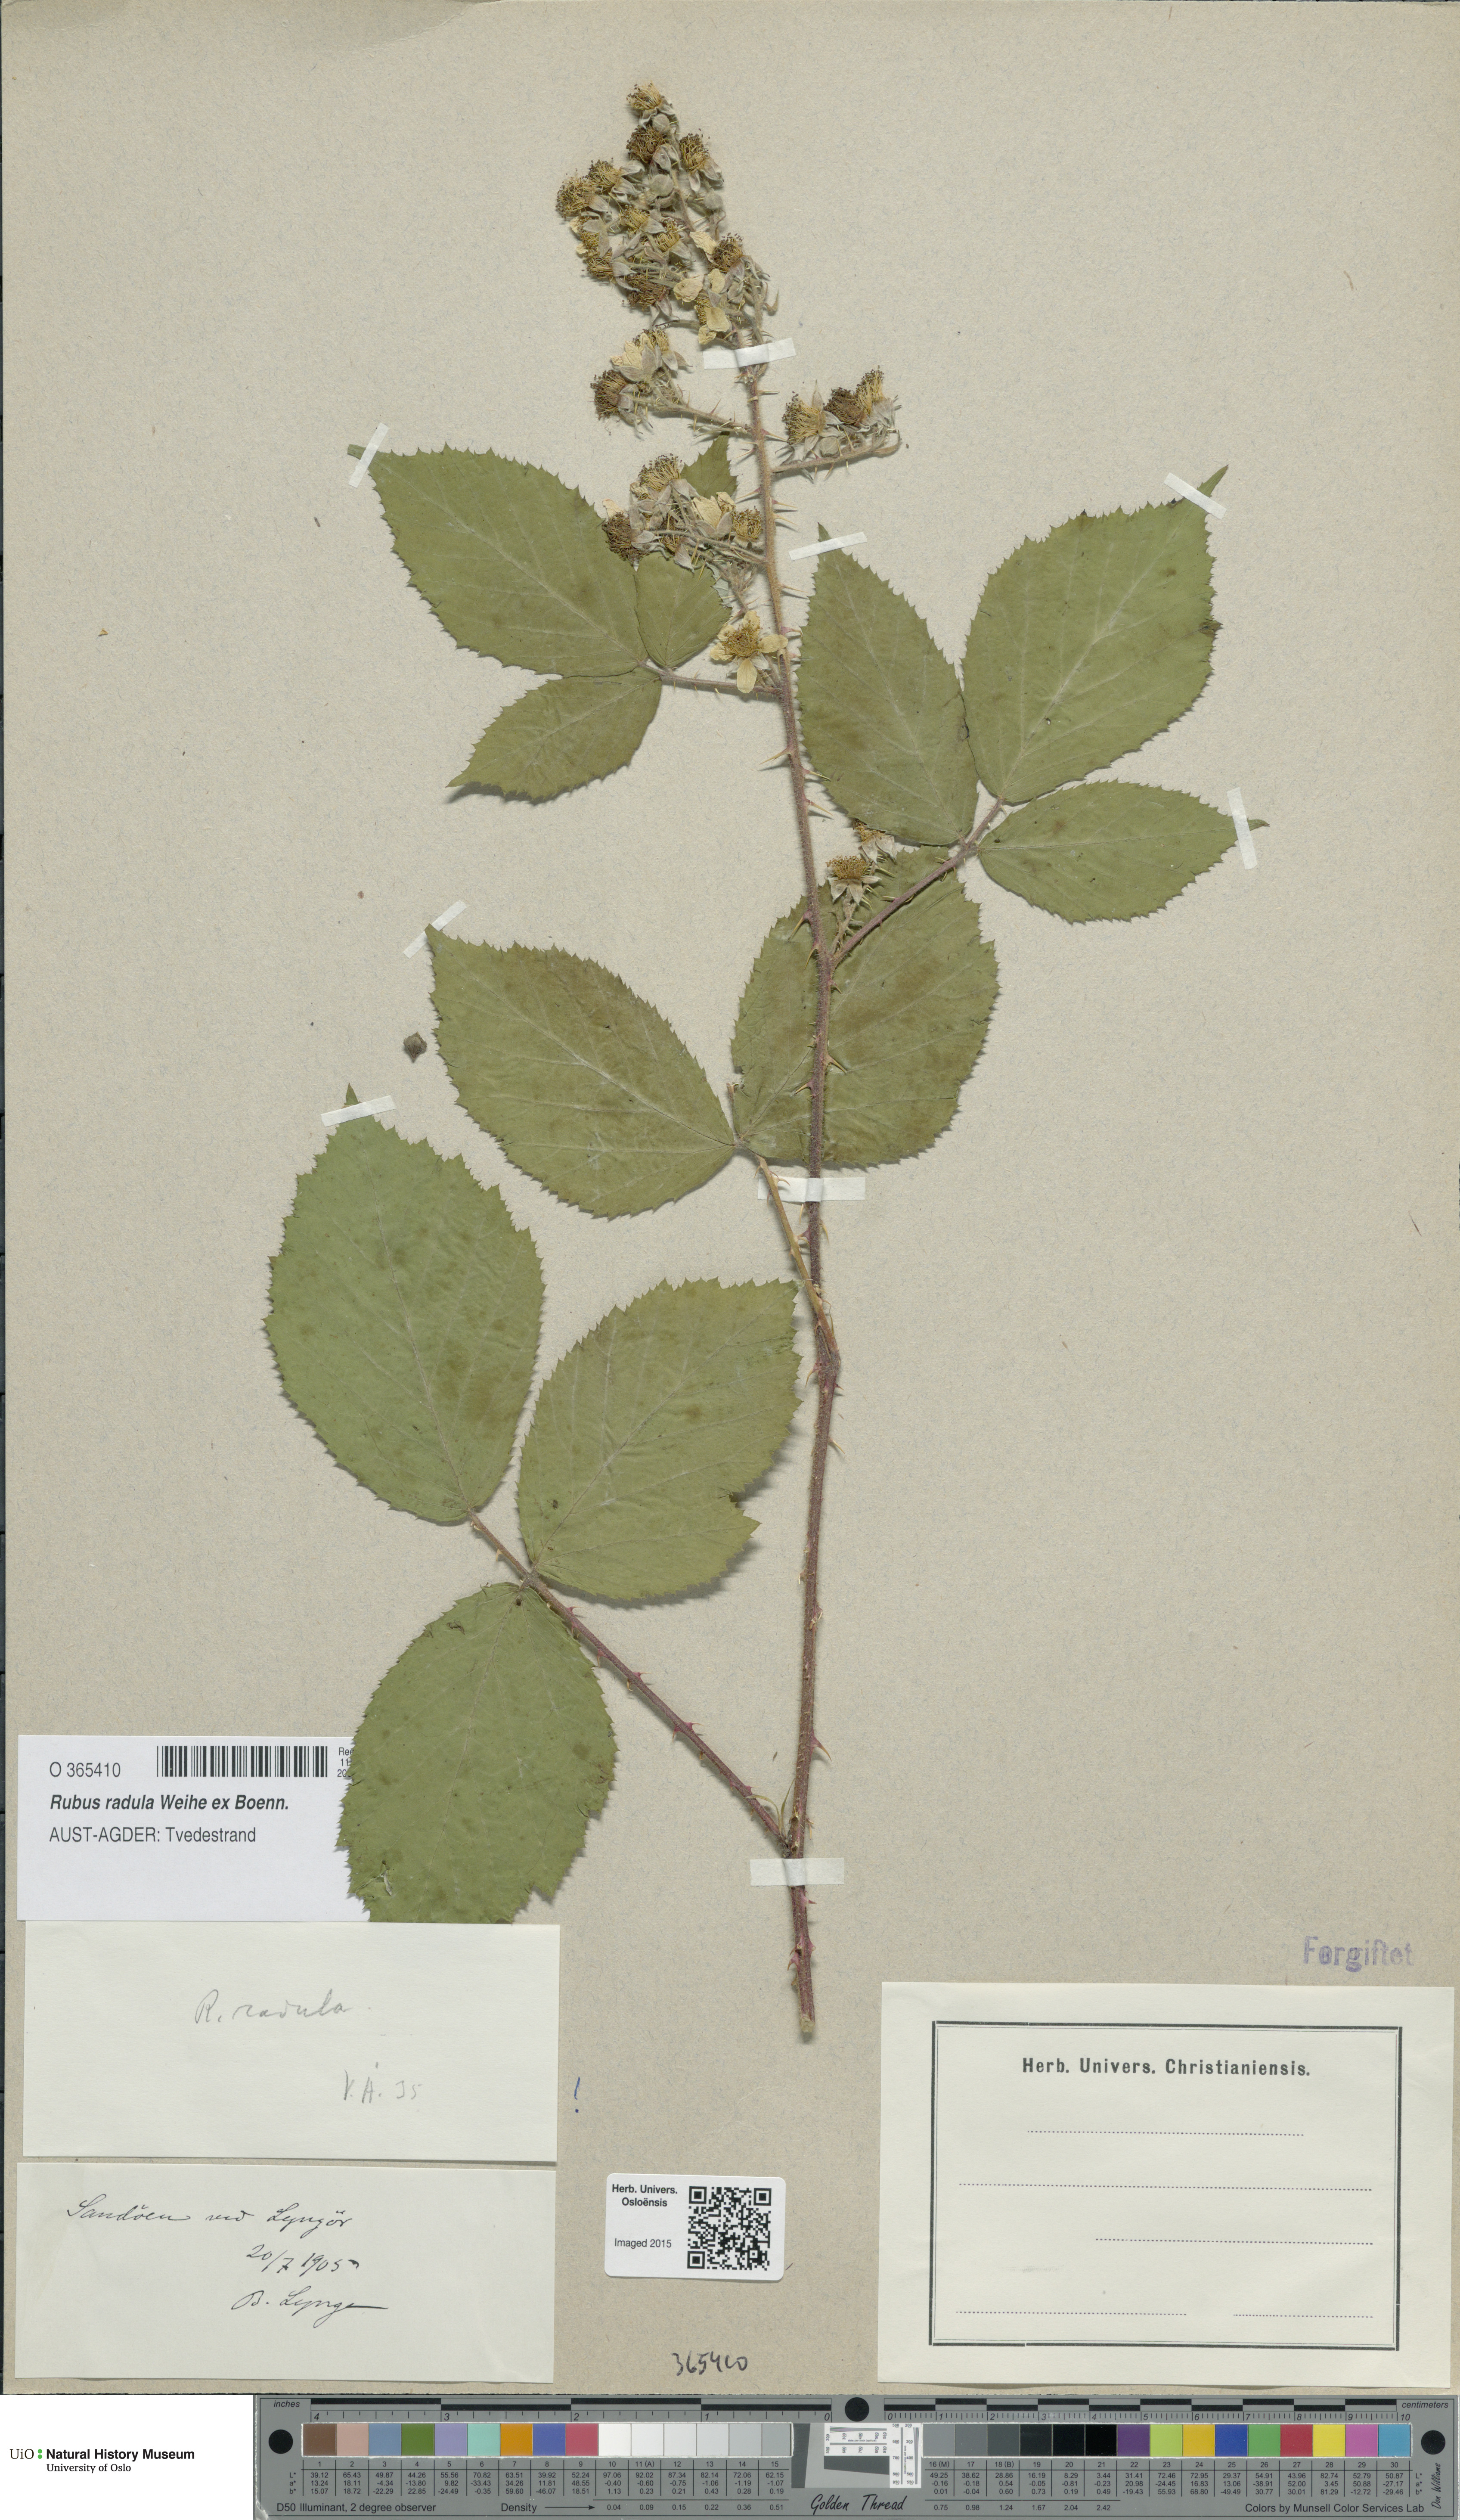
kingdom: Plantae
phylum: Tracheophyta
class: Magnoliopsida
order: Rosales
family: Rosaceae
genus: Rubus
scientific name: Rubus radula
